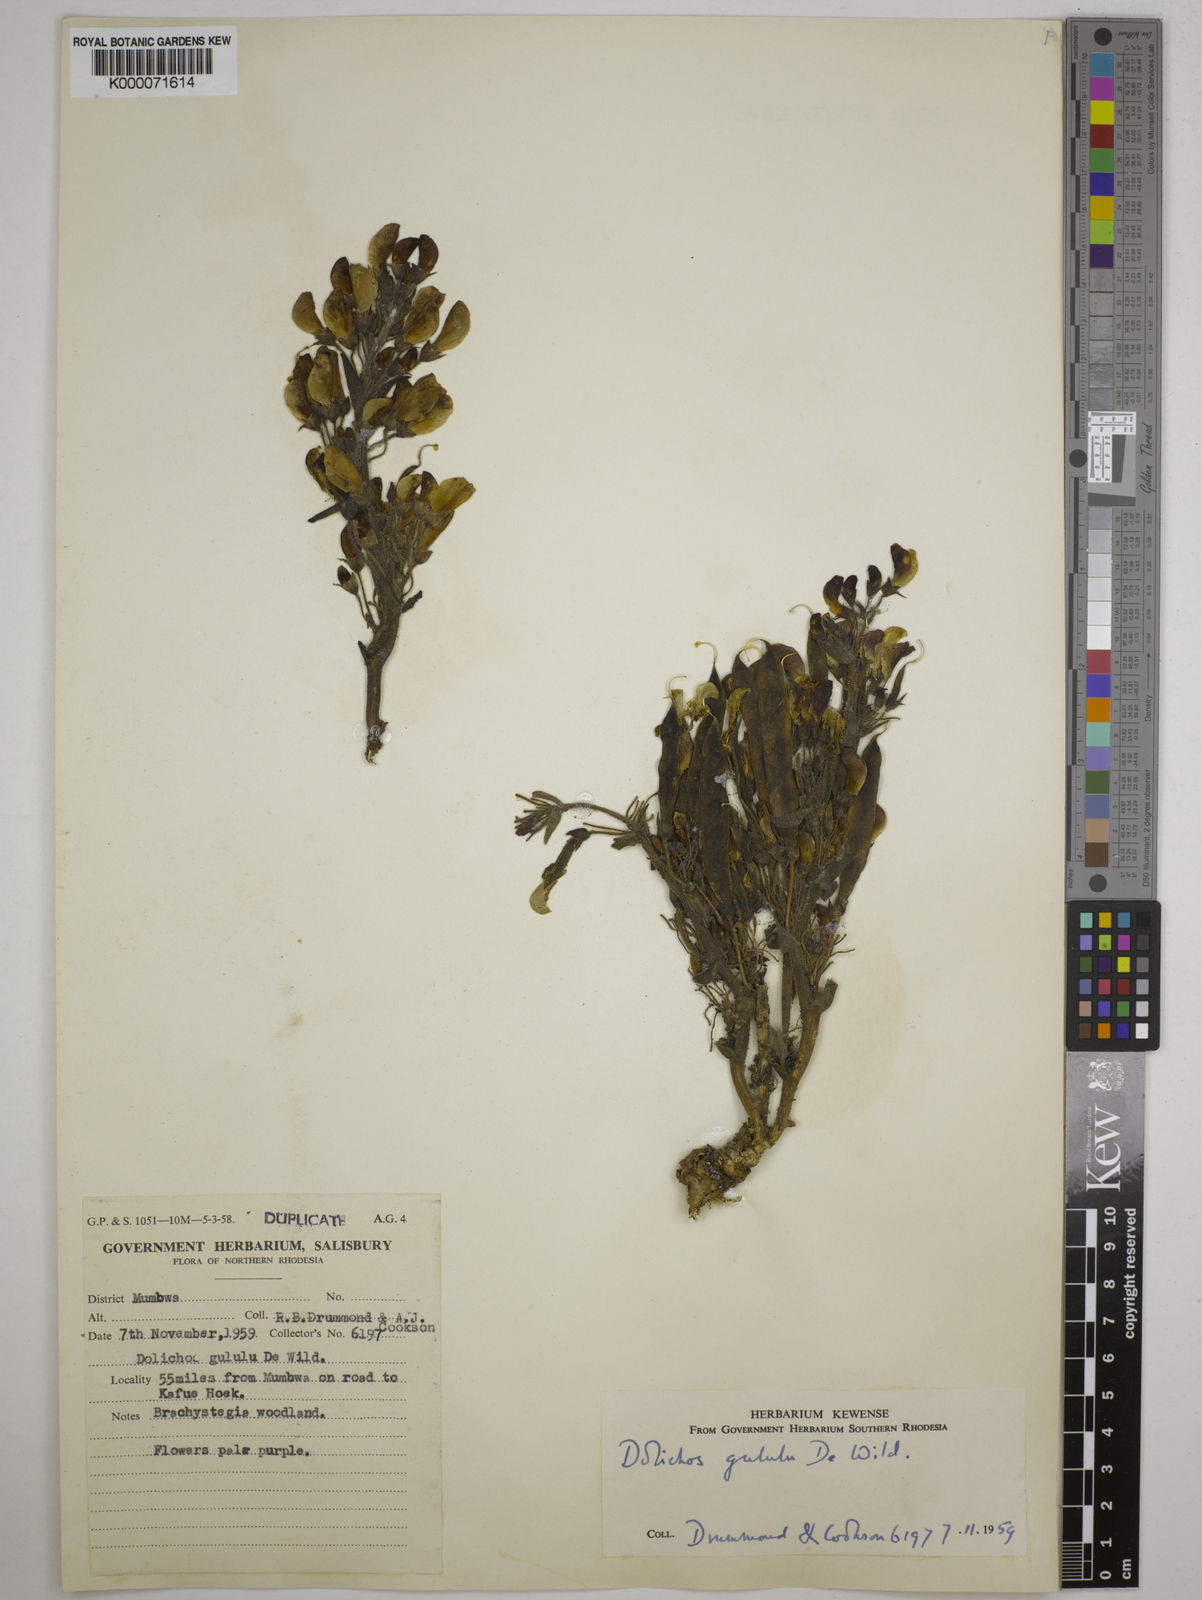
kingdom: Plantae
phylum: Tracheophyta
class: Magnoliopsida
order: Fabales
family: Fabaceae
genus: Dolichos
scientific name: Dolichos gululu
